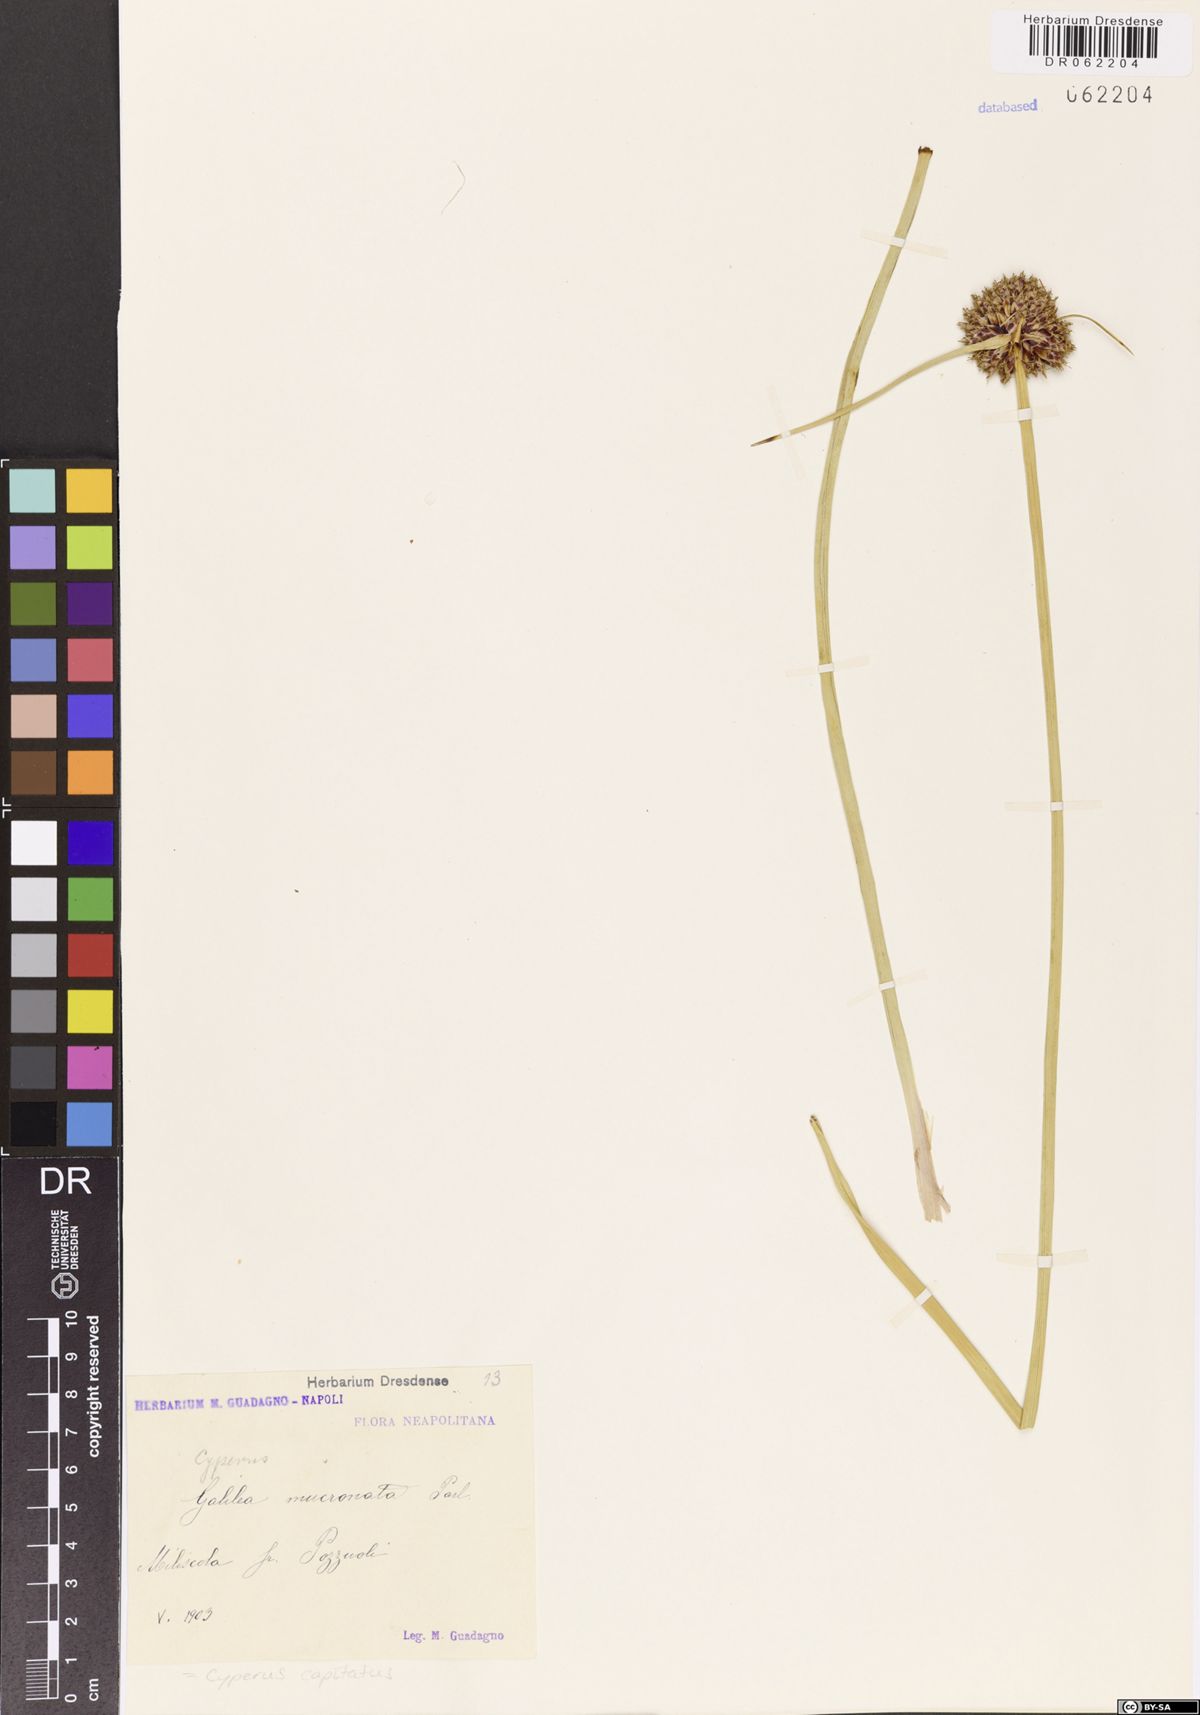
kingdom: Plantae
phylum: Tracheophyta
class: Liliopsida
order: Poales
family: Cyperaceae
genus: Cyperus
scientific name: Cyperus capitatus
